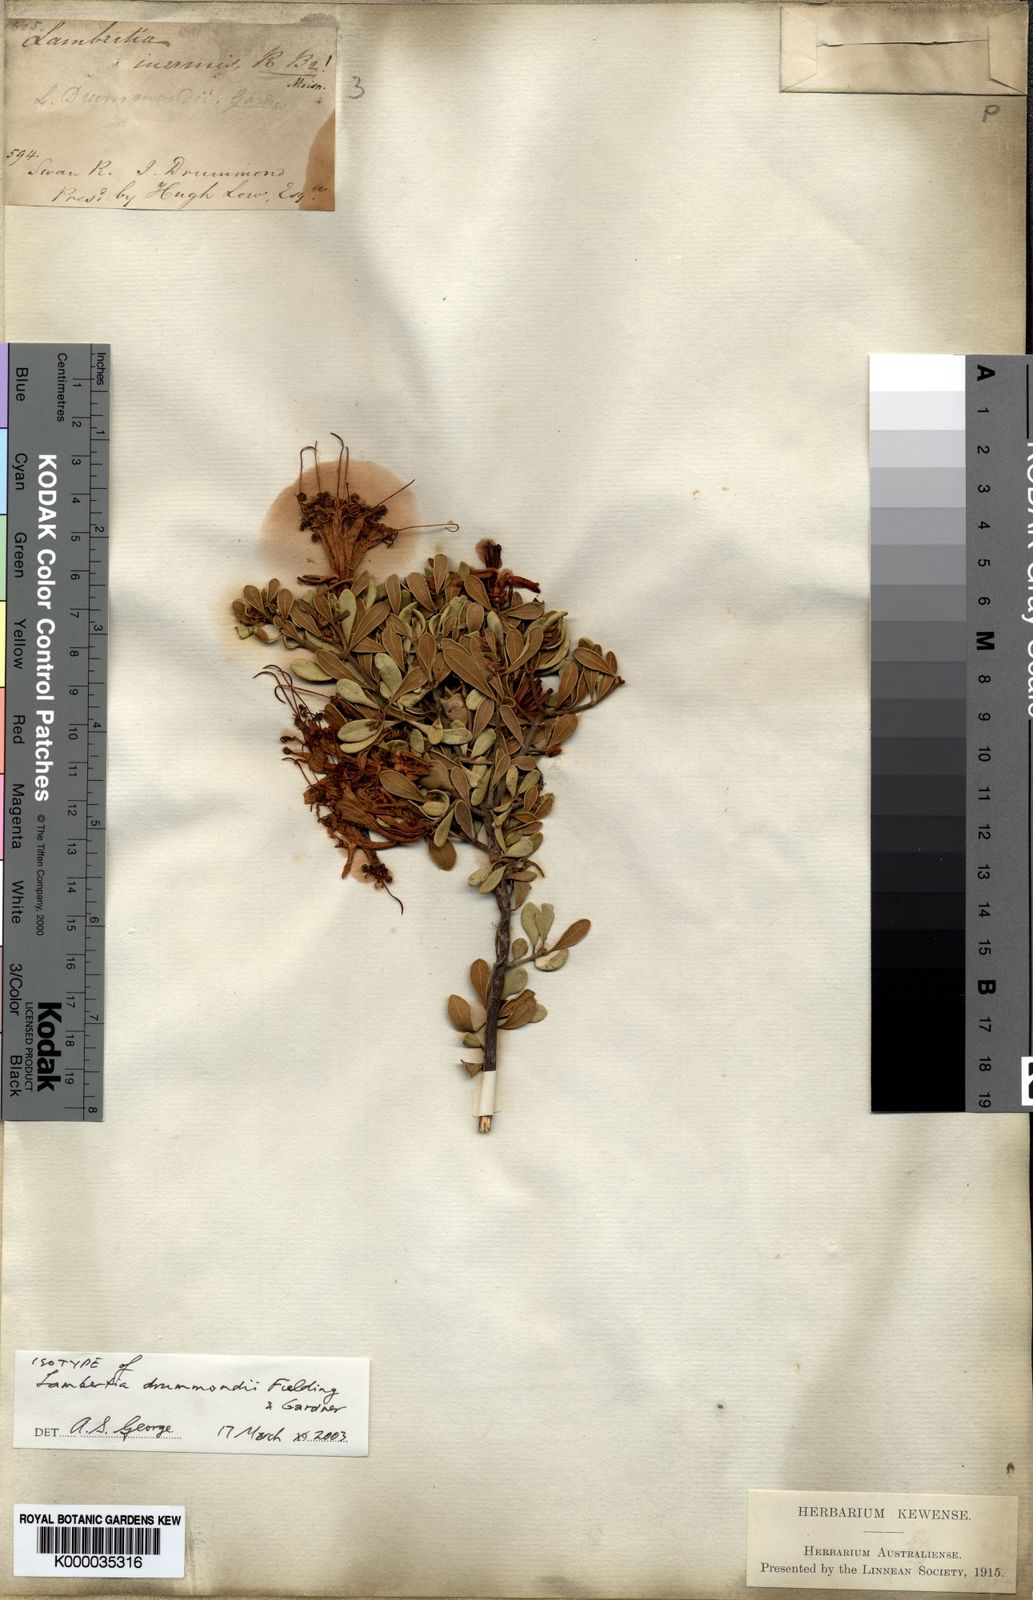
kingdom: Plantae
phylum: Tracheophyta
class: Magnoliopsida
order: Proteales
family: Proteaceae
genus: Lambertia
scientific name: Lambertia inermis
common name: Chittick
